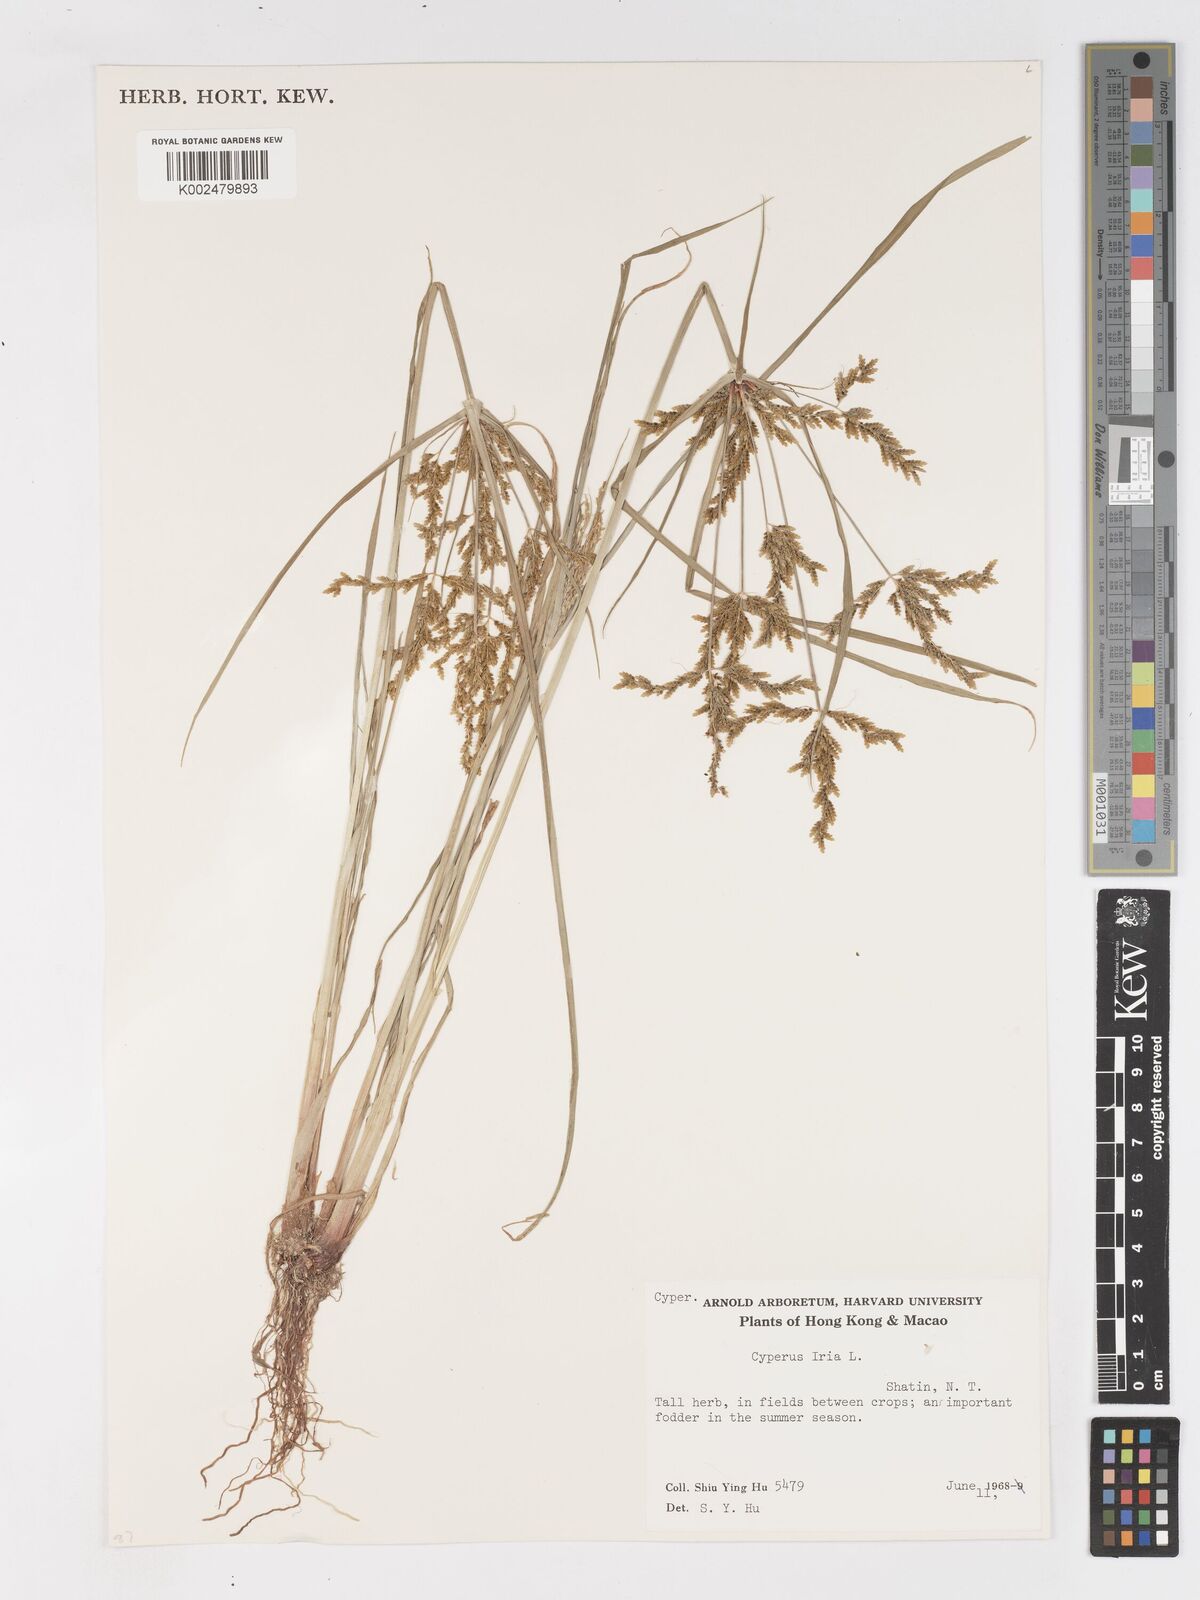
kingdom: Plantae
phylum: Tracheophyta
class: Liliopsida
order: Poales
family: Cyperaceae
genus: Cyperus
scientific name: Cyperus iria
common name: Ricefield flatsedge
